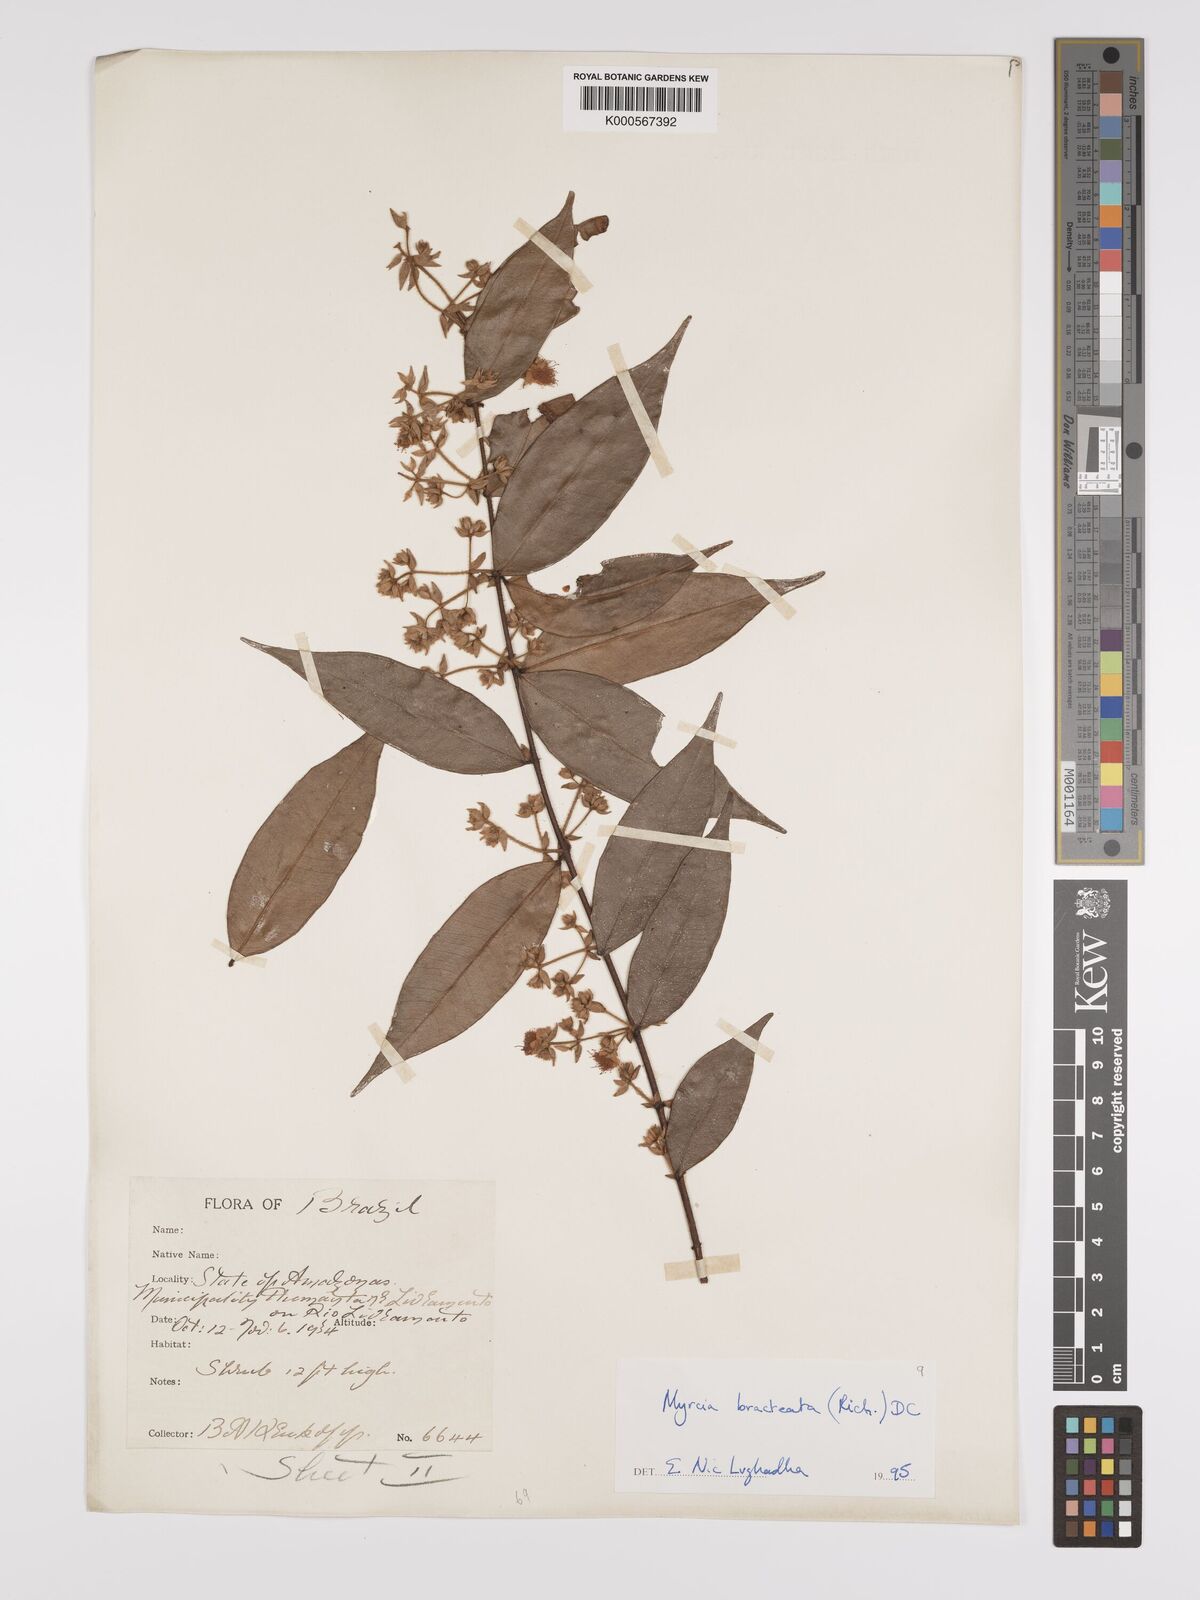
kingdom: Plantae
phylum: Tracheophyta
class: Magnoliopsida
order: Myrtales
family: Myrtaceae
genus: Myrcia
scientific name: Myrcia bracteata
